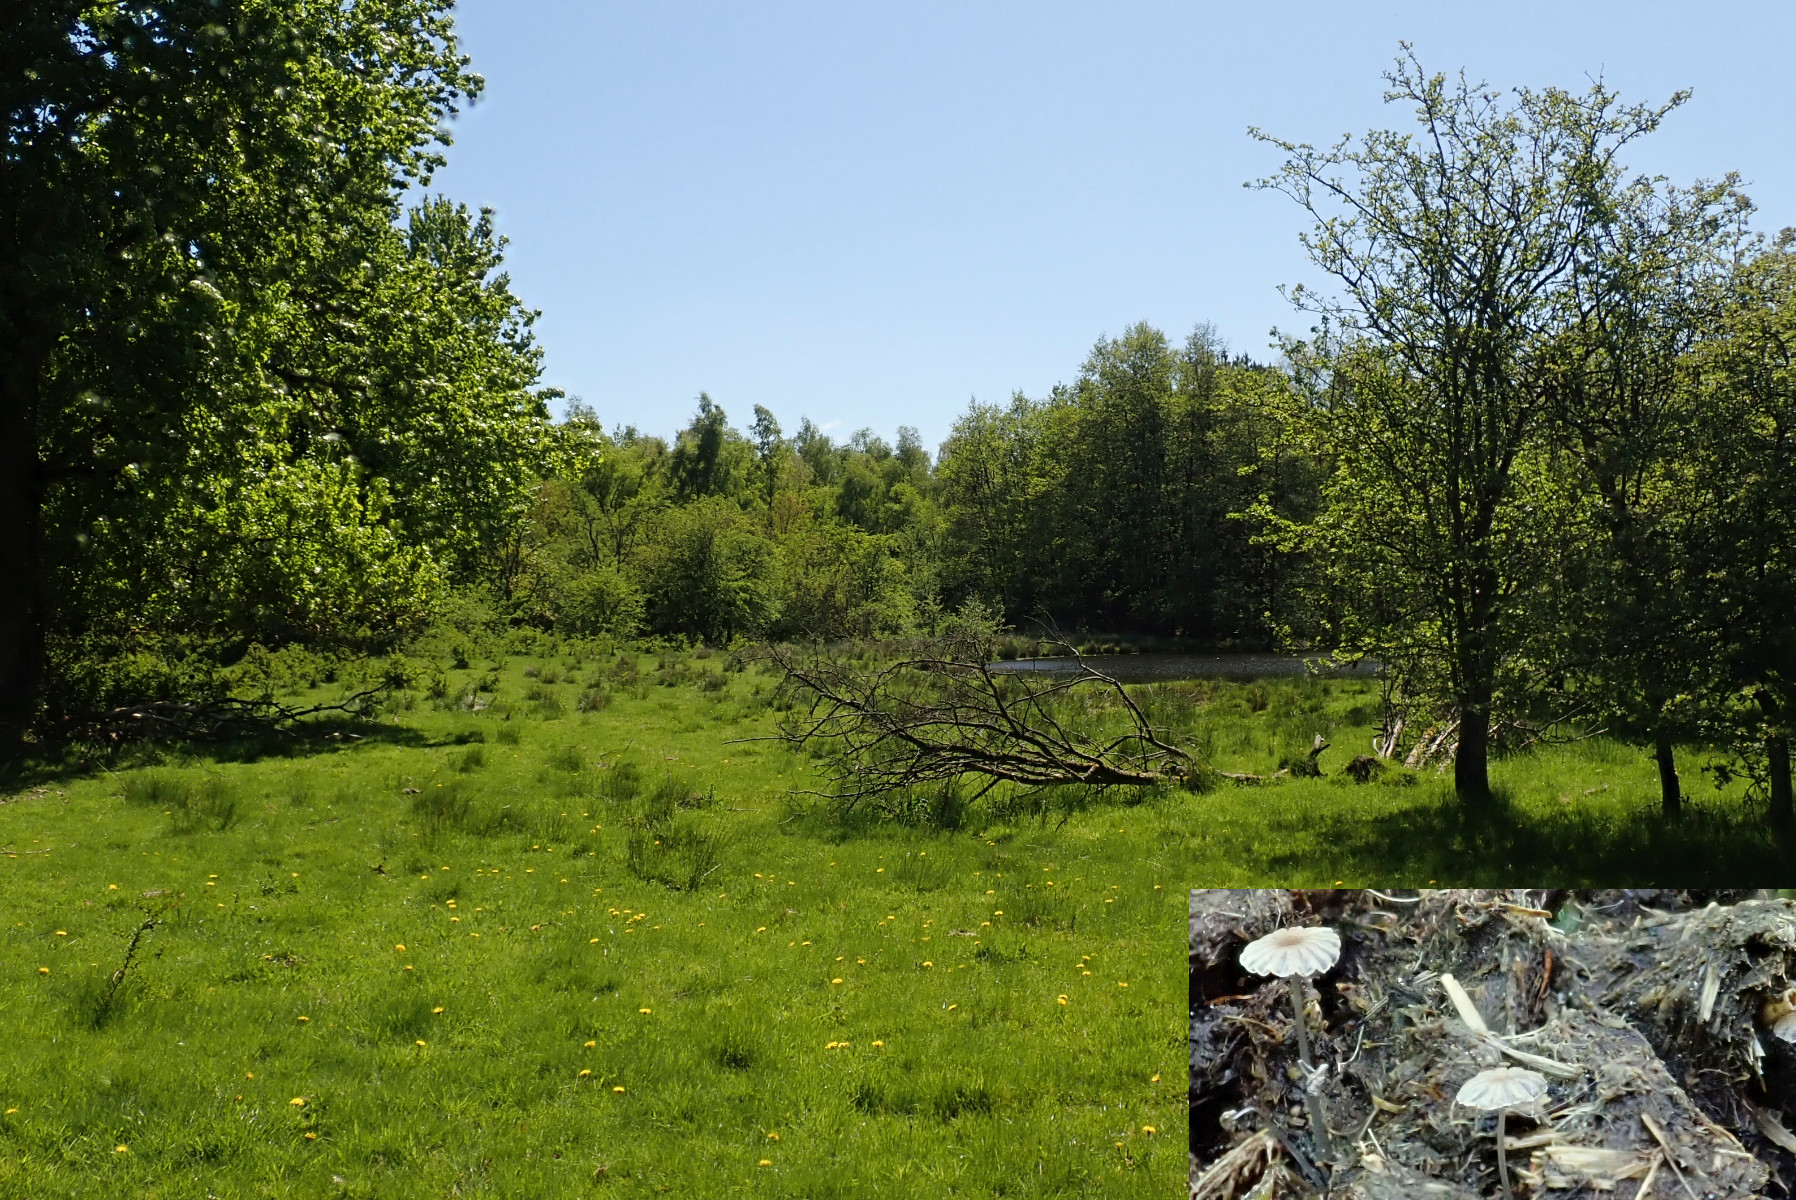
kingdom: Fungi
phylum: Basidiomycota
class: Agaricomycetes
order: Agaricales
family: Psathyrellaceae
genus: Parasola
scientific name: Parasola misera
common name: lillebitte hjulhat
